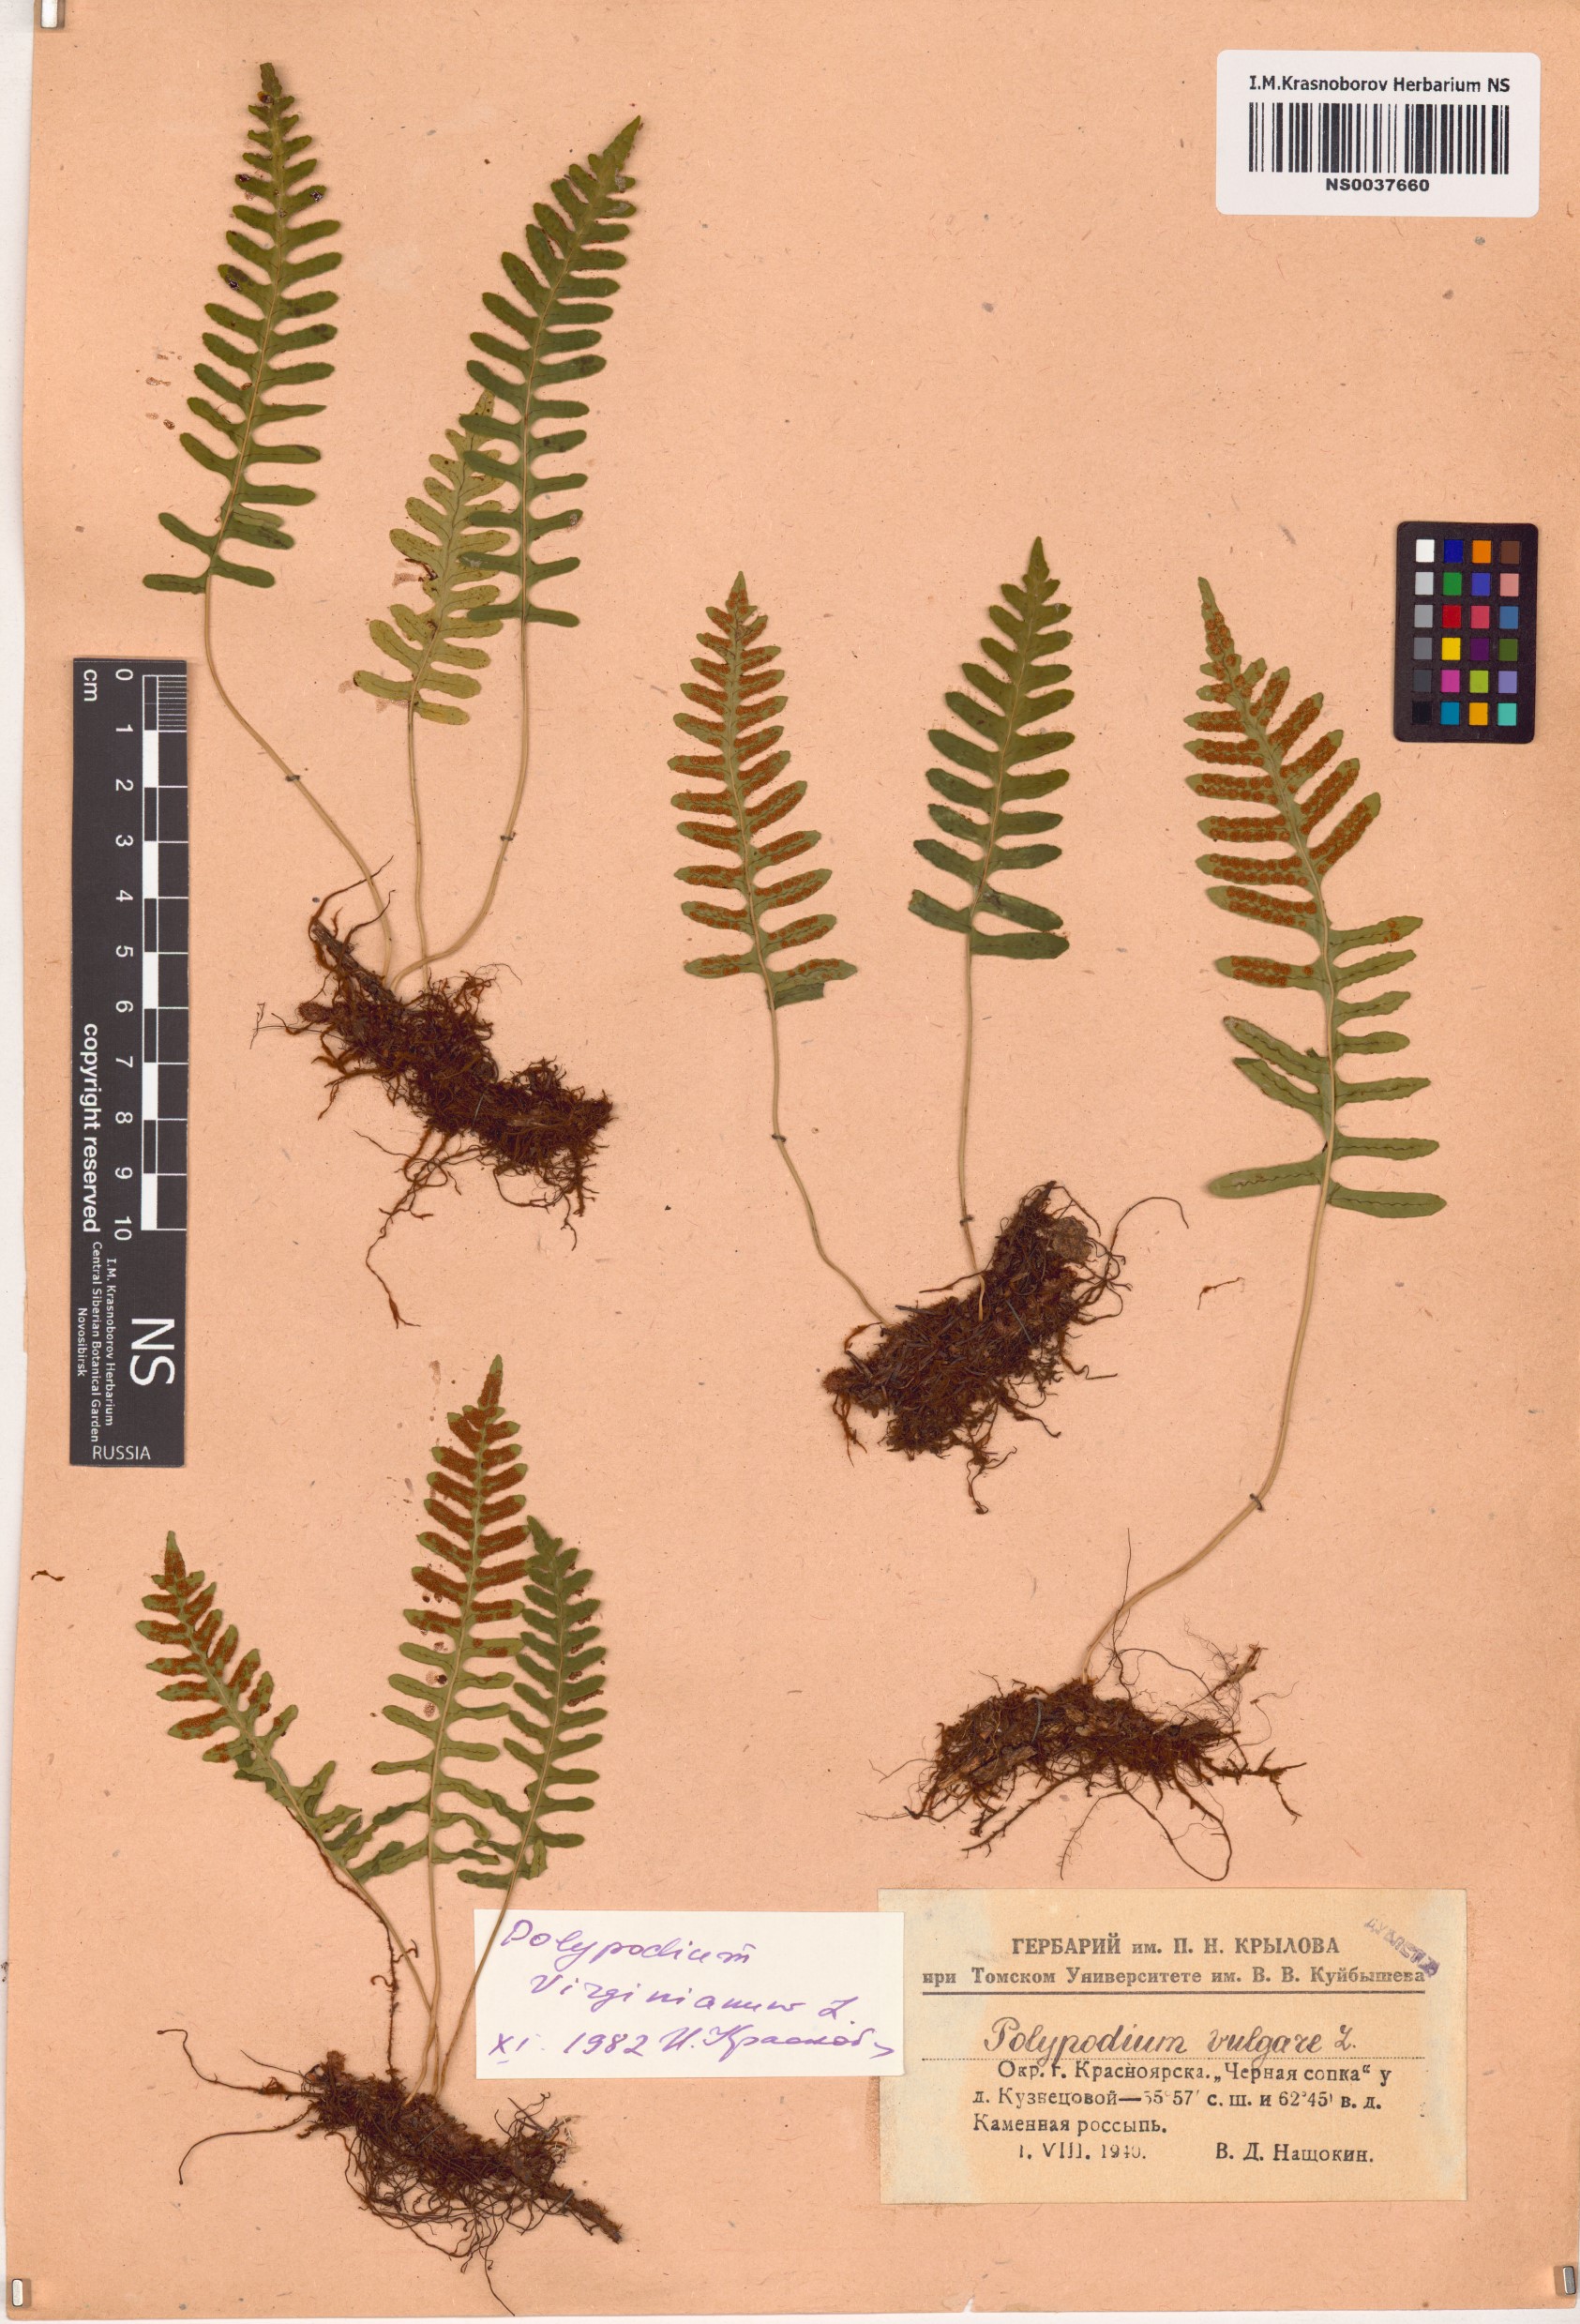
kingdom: Plantae
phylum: Tracheophyta
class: Polypodiopsida
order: Polypodiales
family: Polypodiaceae
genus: Polypodium
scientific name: Polypodium virginianum
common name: American wall fern
